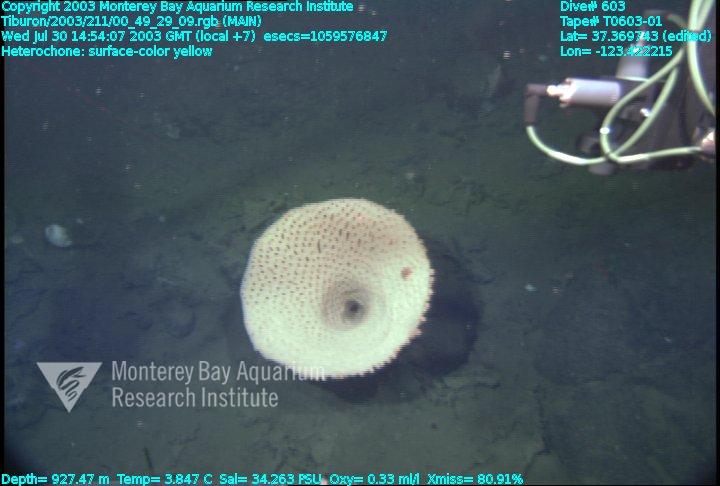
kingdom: Animalia
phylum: Porifera
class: Hexactinellida
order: Sceptrulophora
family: Aphrocallistidae
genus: Heterochone
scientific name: Heterochone
